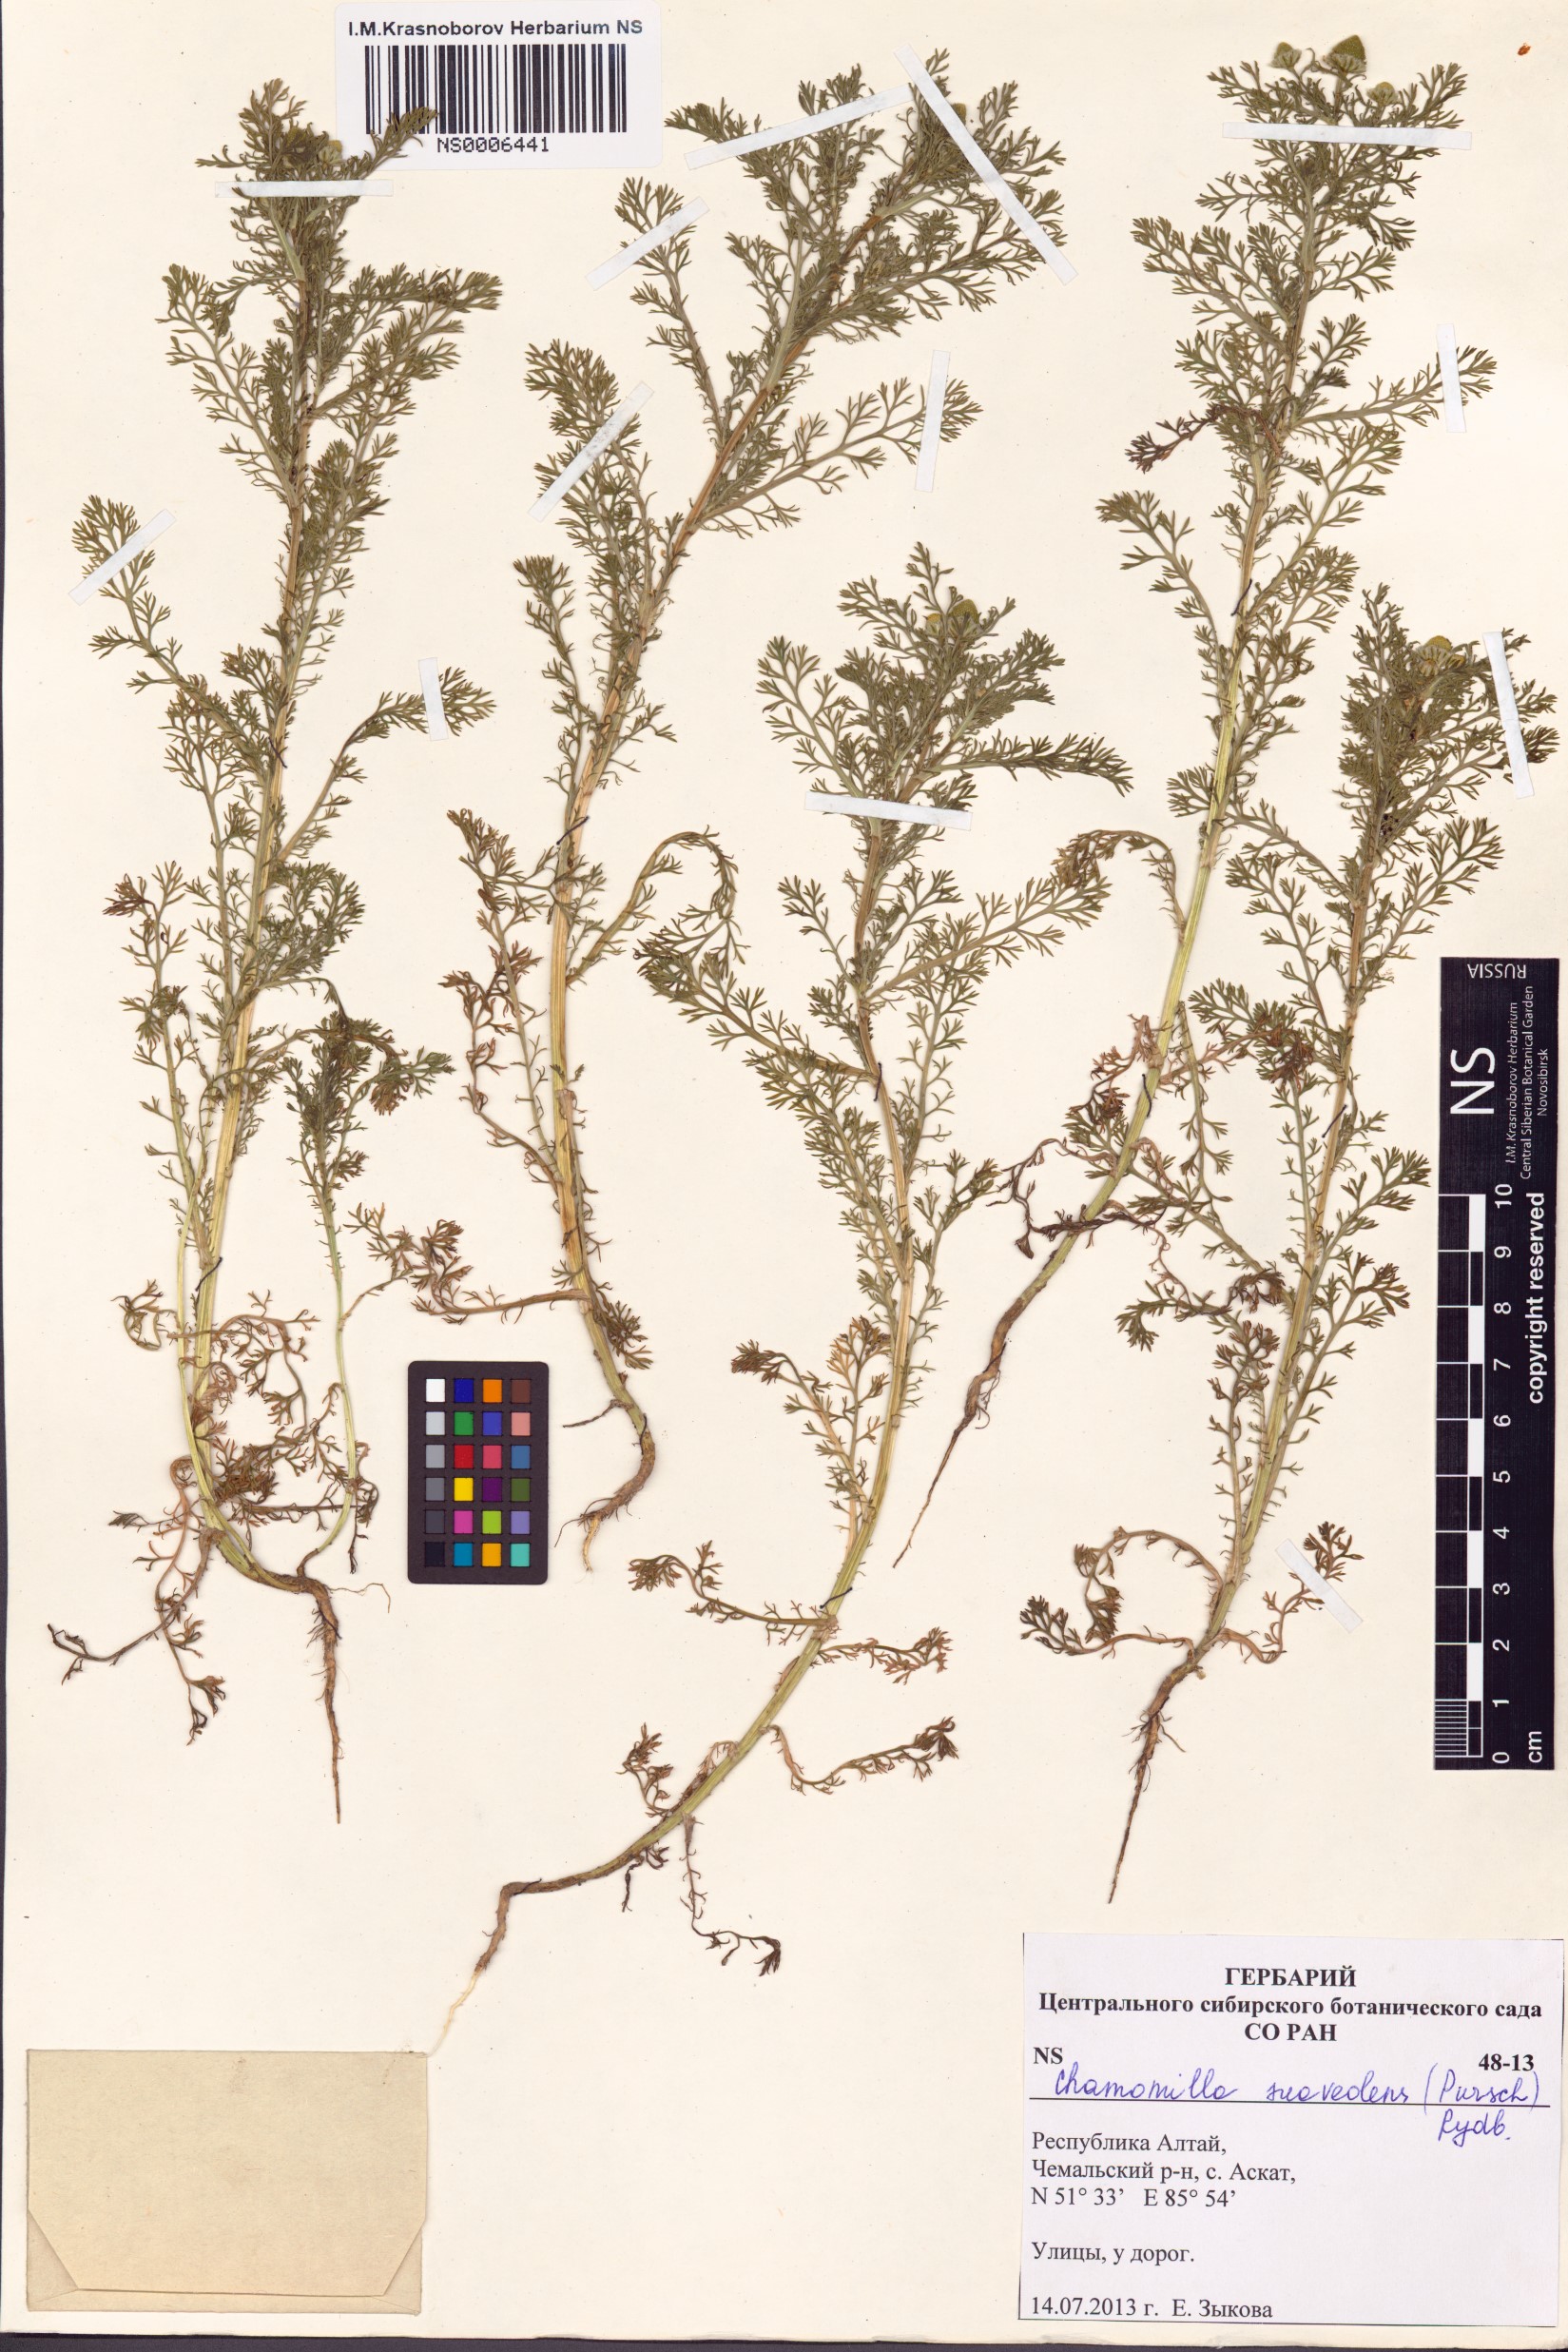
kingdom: Plantae
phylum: Tracheophyta
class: Magnoliopsida
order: Asterales
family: Asteraceae
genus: Matricaria
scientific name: Matricaria discoidea
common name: Disc mayweed
